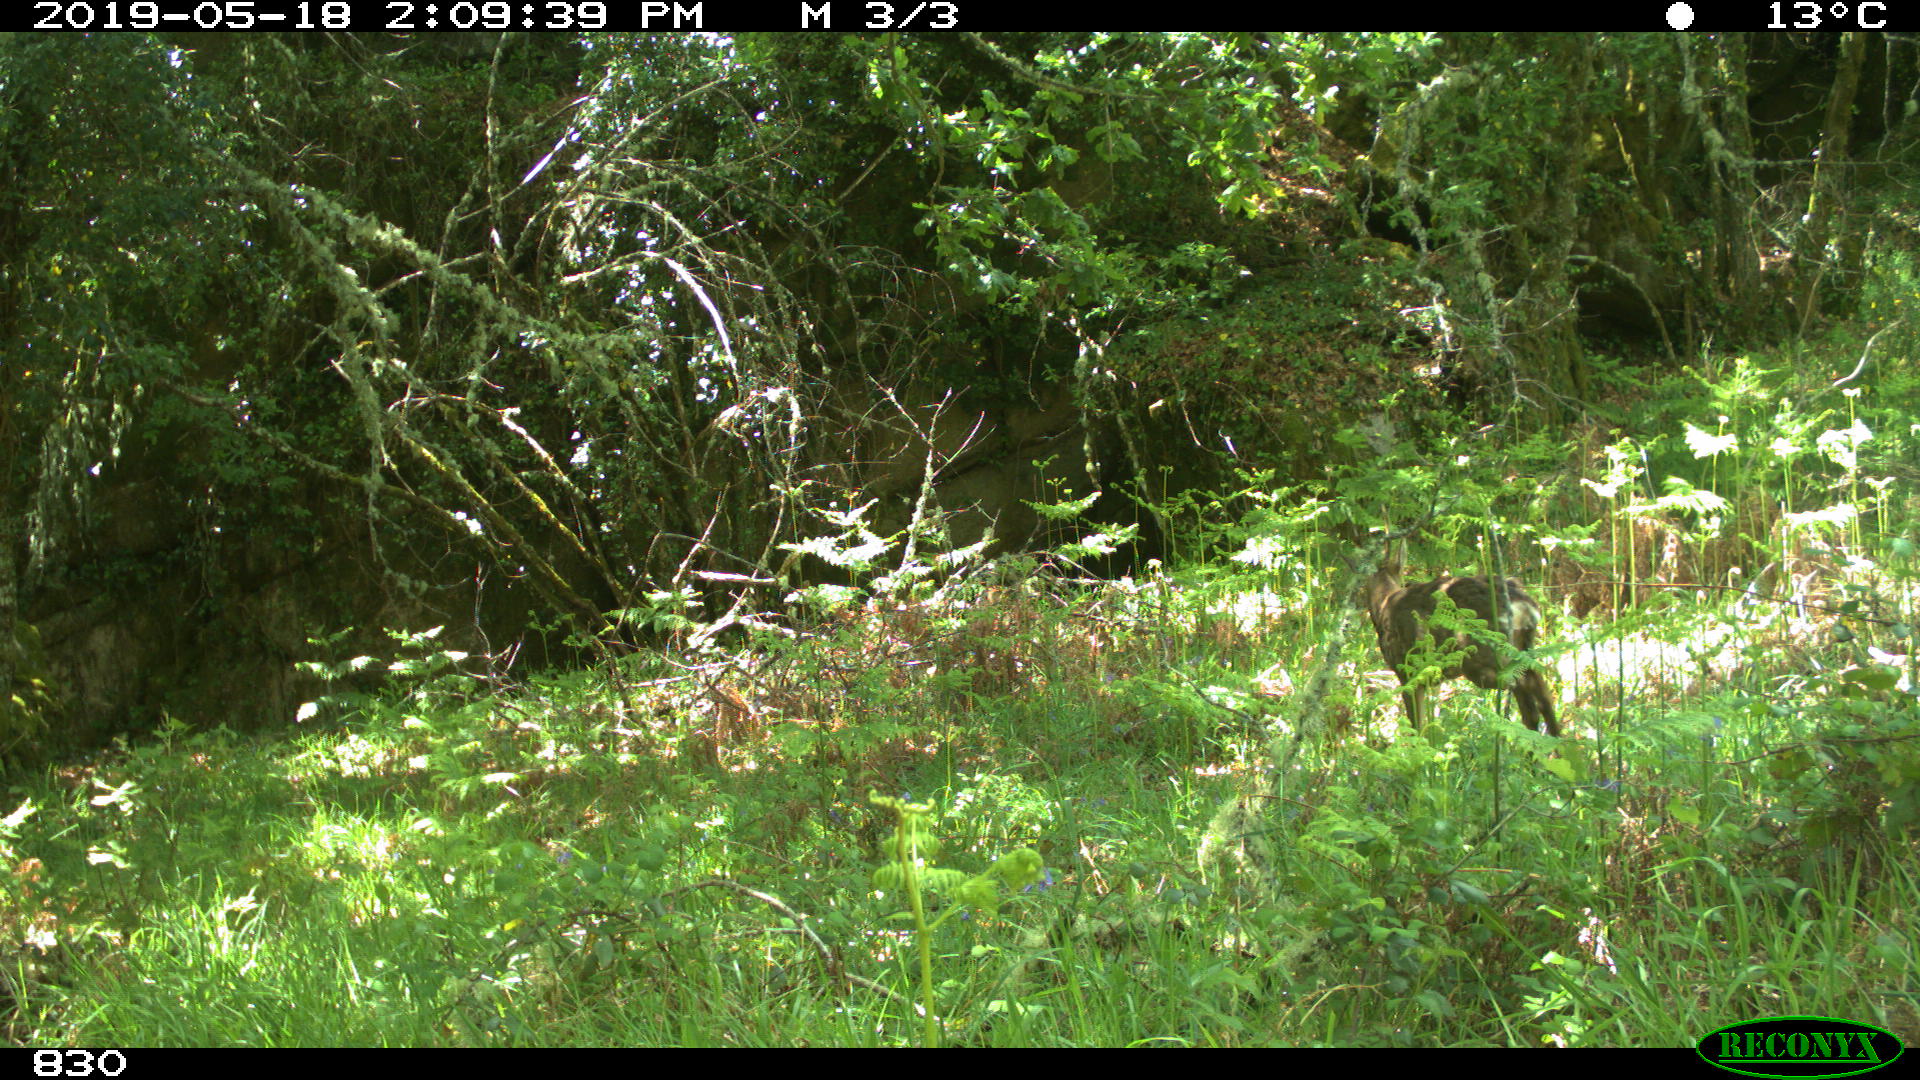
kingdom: Animalia
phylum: Chordata
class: Mammalia
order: Artiodactyla
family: Cervidae
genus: Capreolus
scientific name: Capreolus capreolus
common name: Western roe deer
